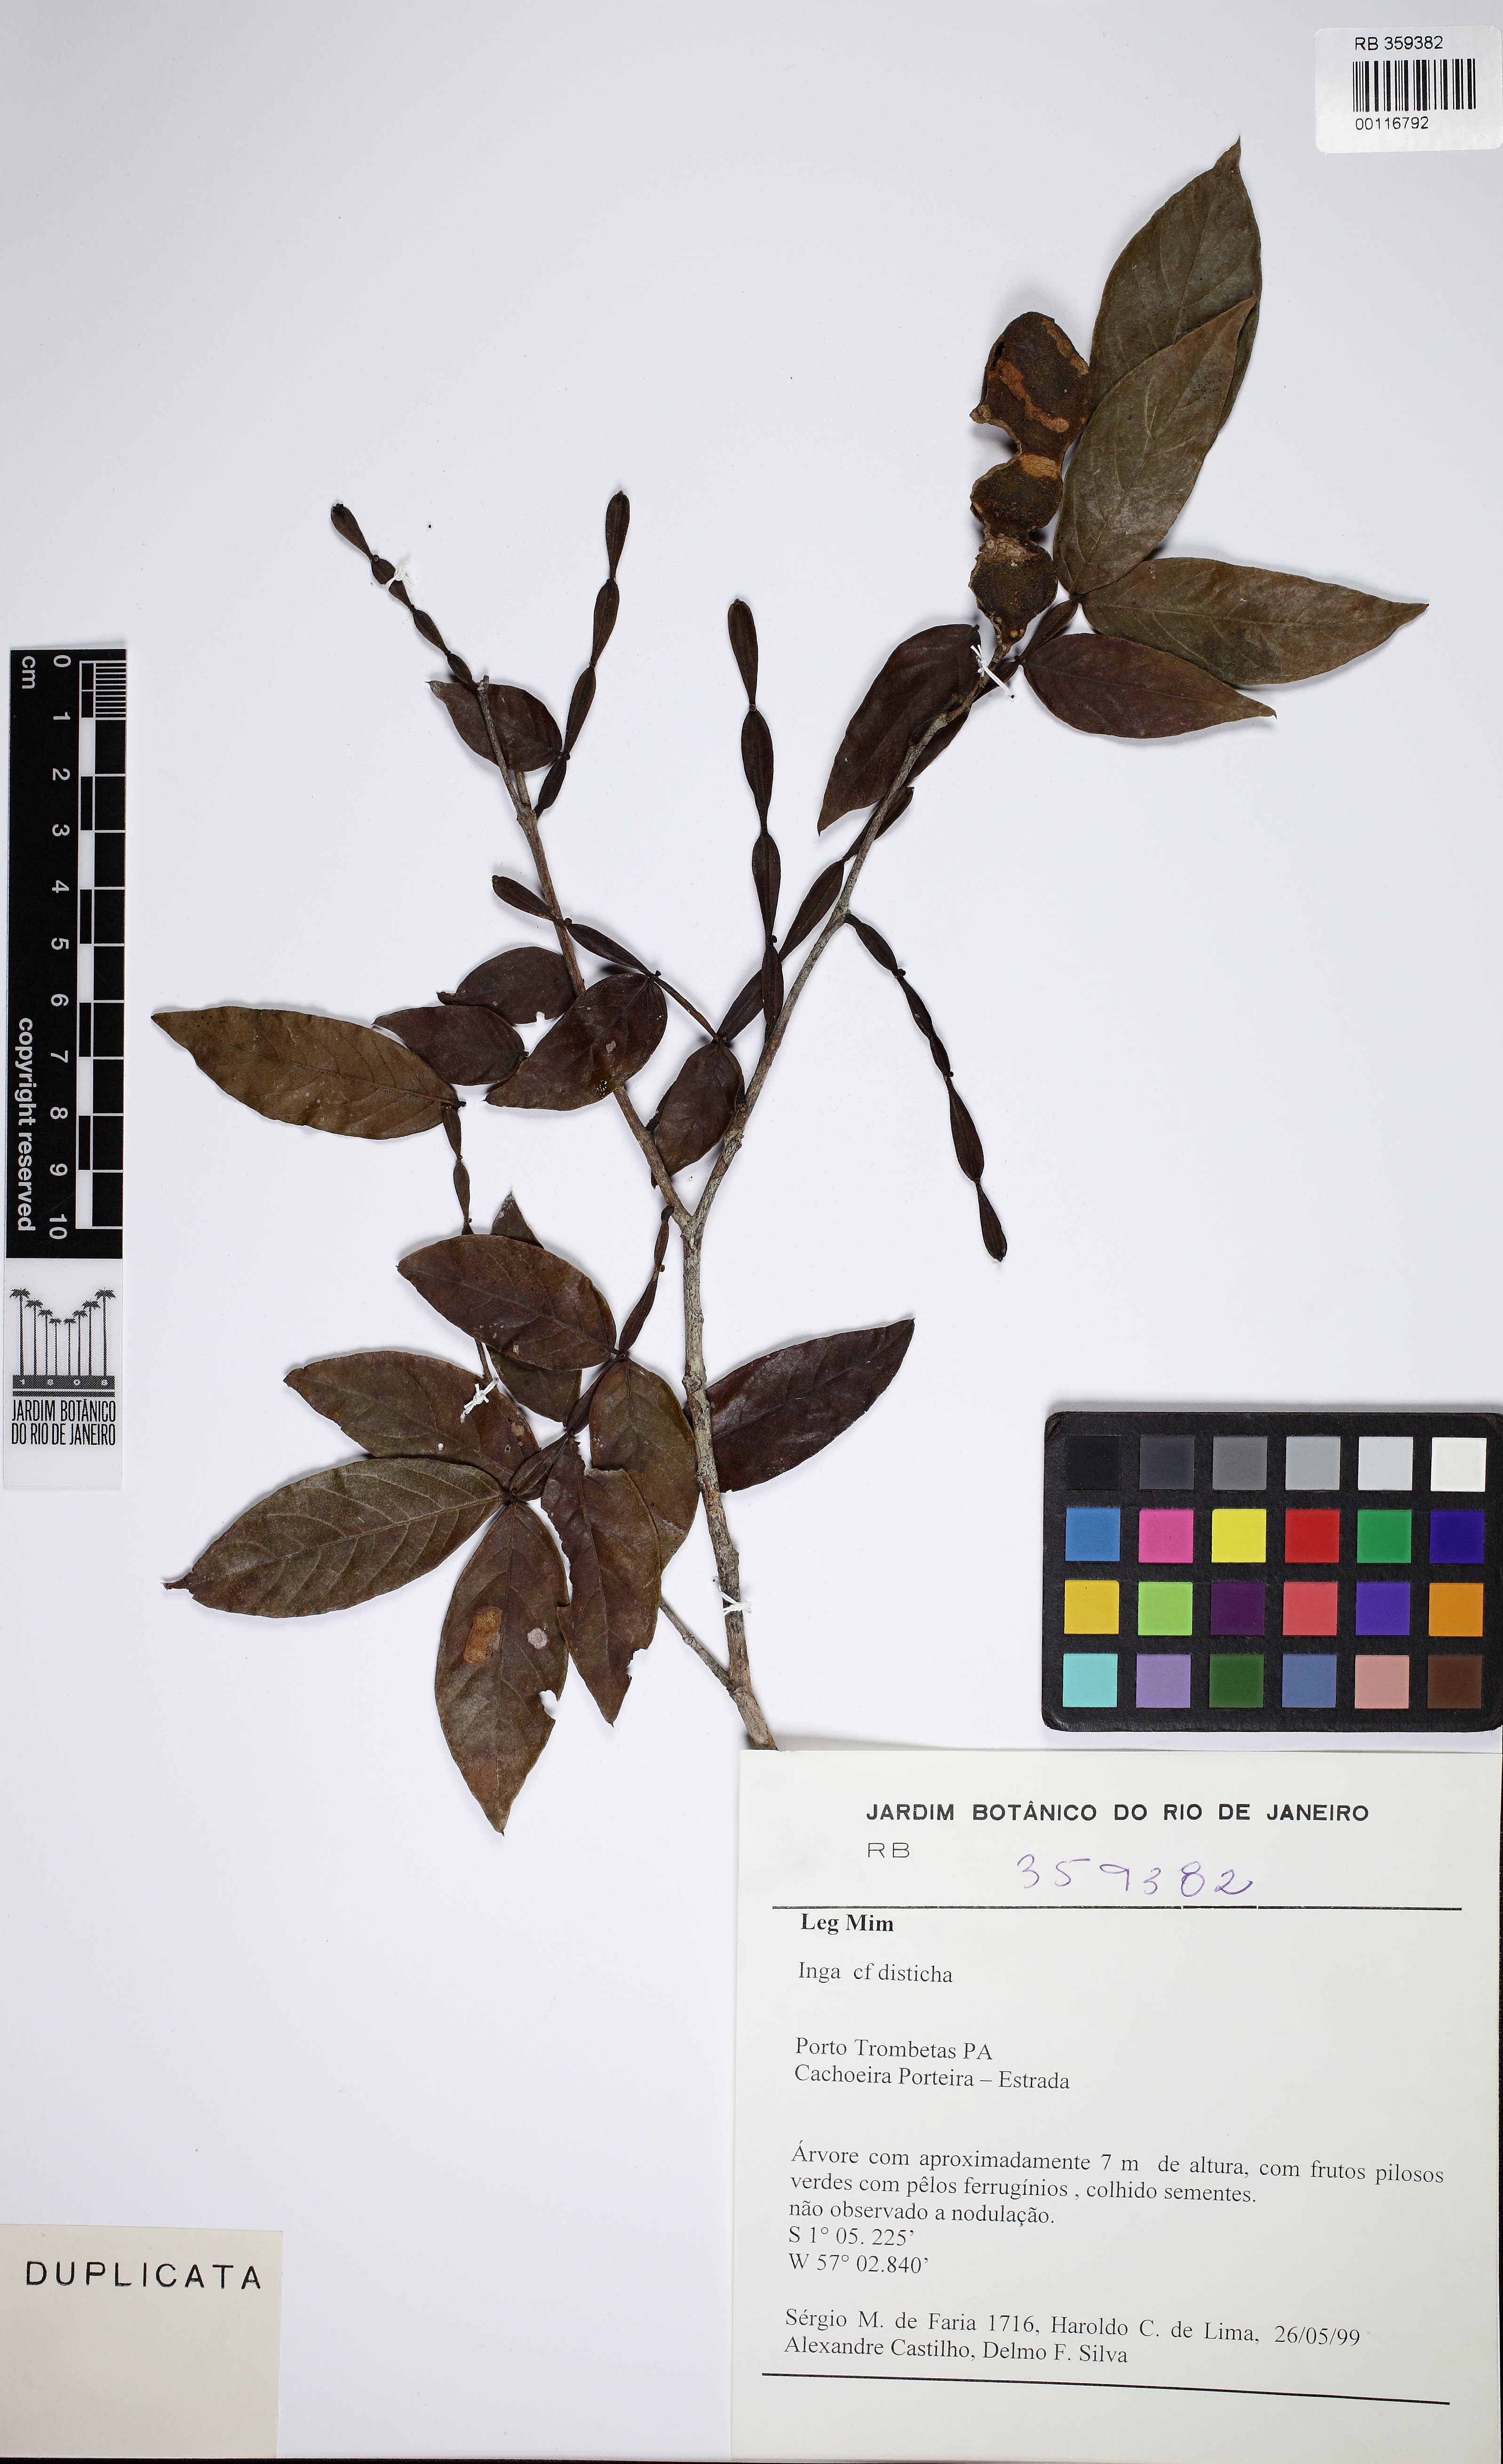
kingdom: Plantae
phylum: Tracheophyta
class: Magnoliopsida
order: Fabales
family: Fabaceae
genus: Inga
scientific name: Inga disticha
